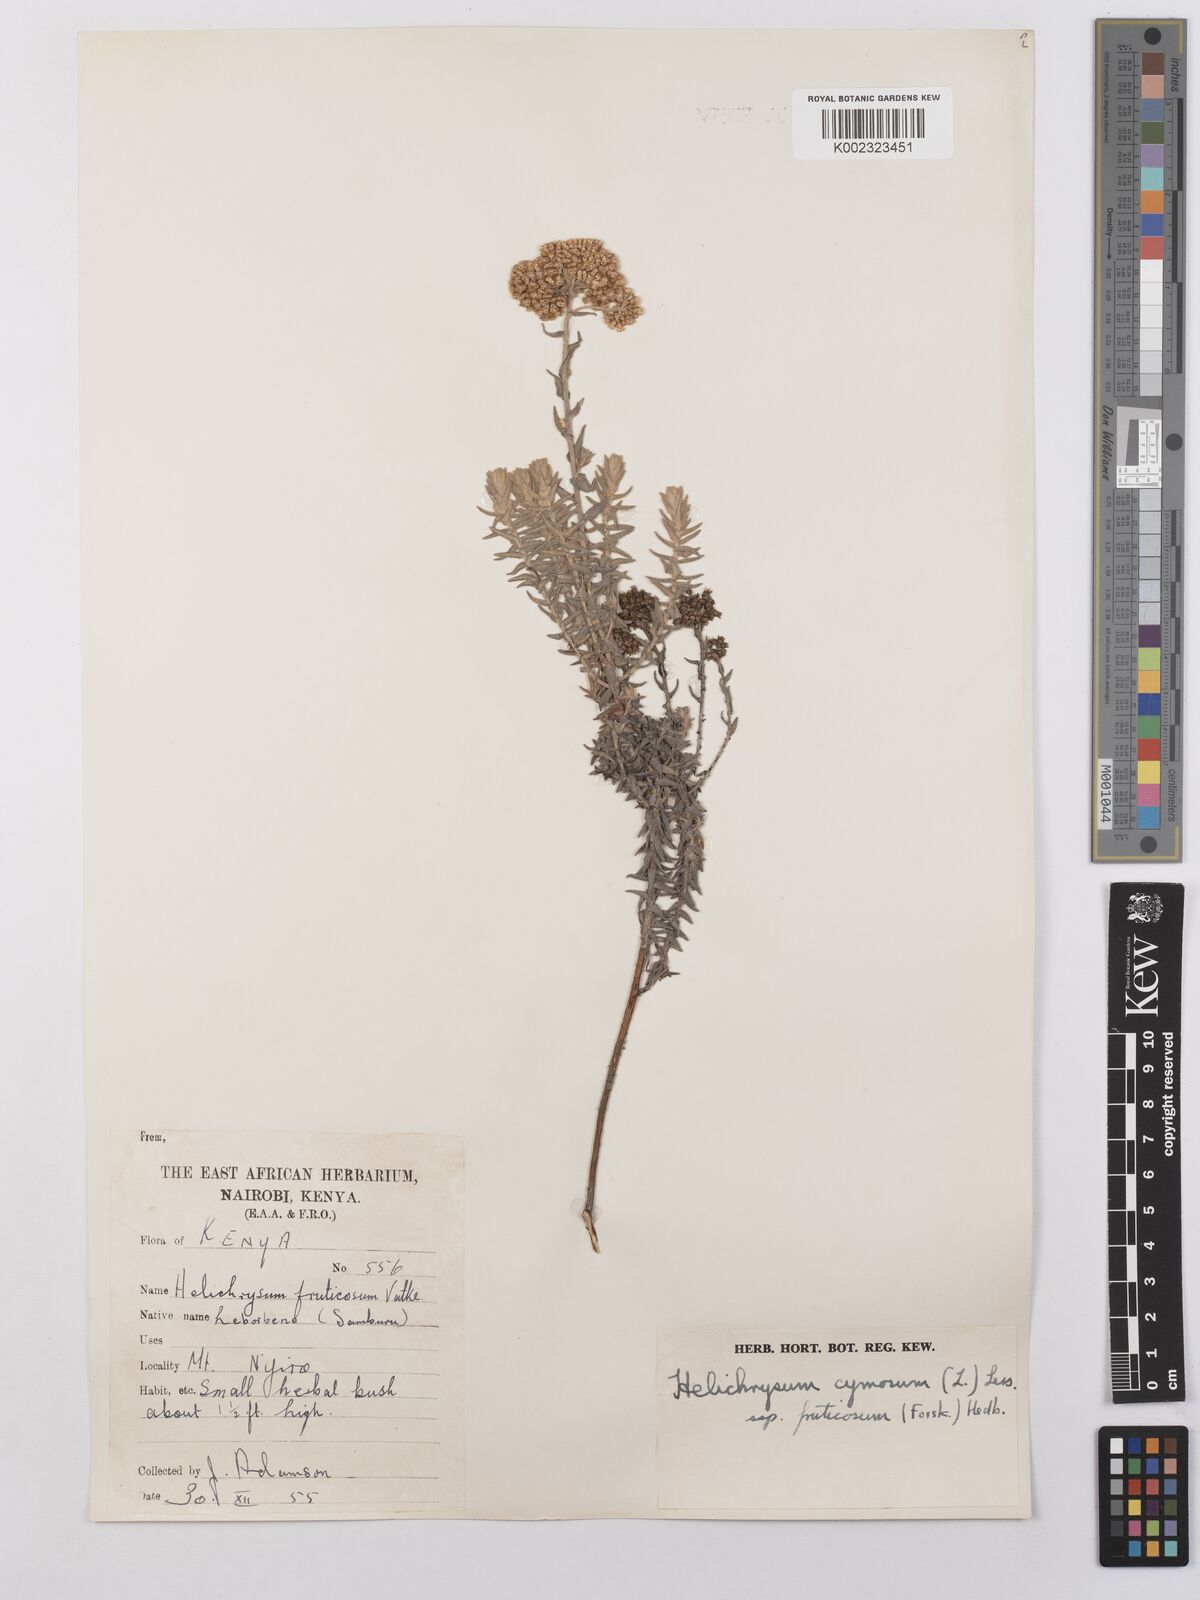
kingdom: Plantae
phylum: Tracheophyta
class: Magnoliopsida
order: Asterales
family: Asteraceae
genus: Helichrysum
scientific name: Helichrysum forskahlii
